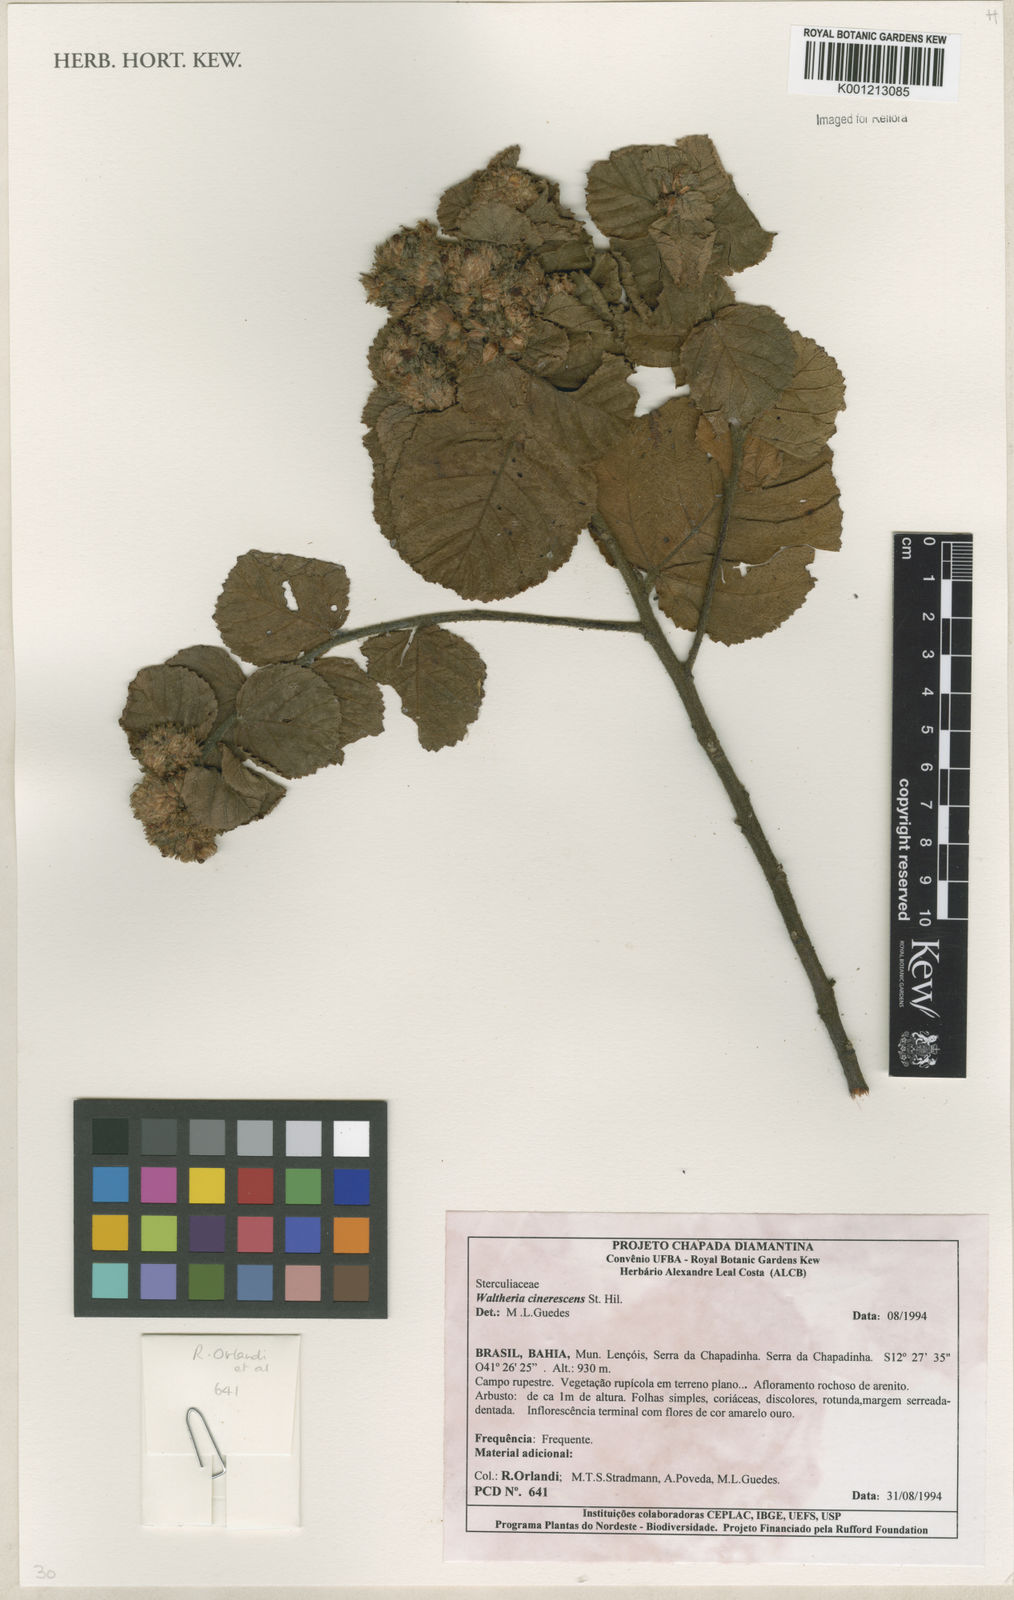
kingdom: Plantae
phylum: Tracheophyta
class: Magnoliopsida
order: Malvales
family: Malvaceae
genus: Waltheria
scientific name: Waltheria cinerescens
